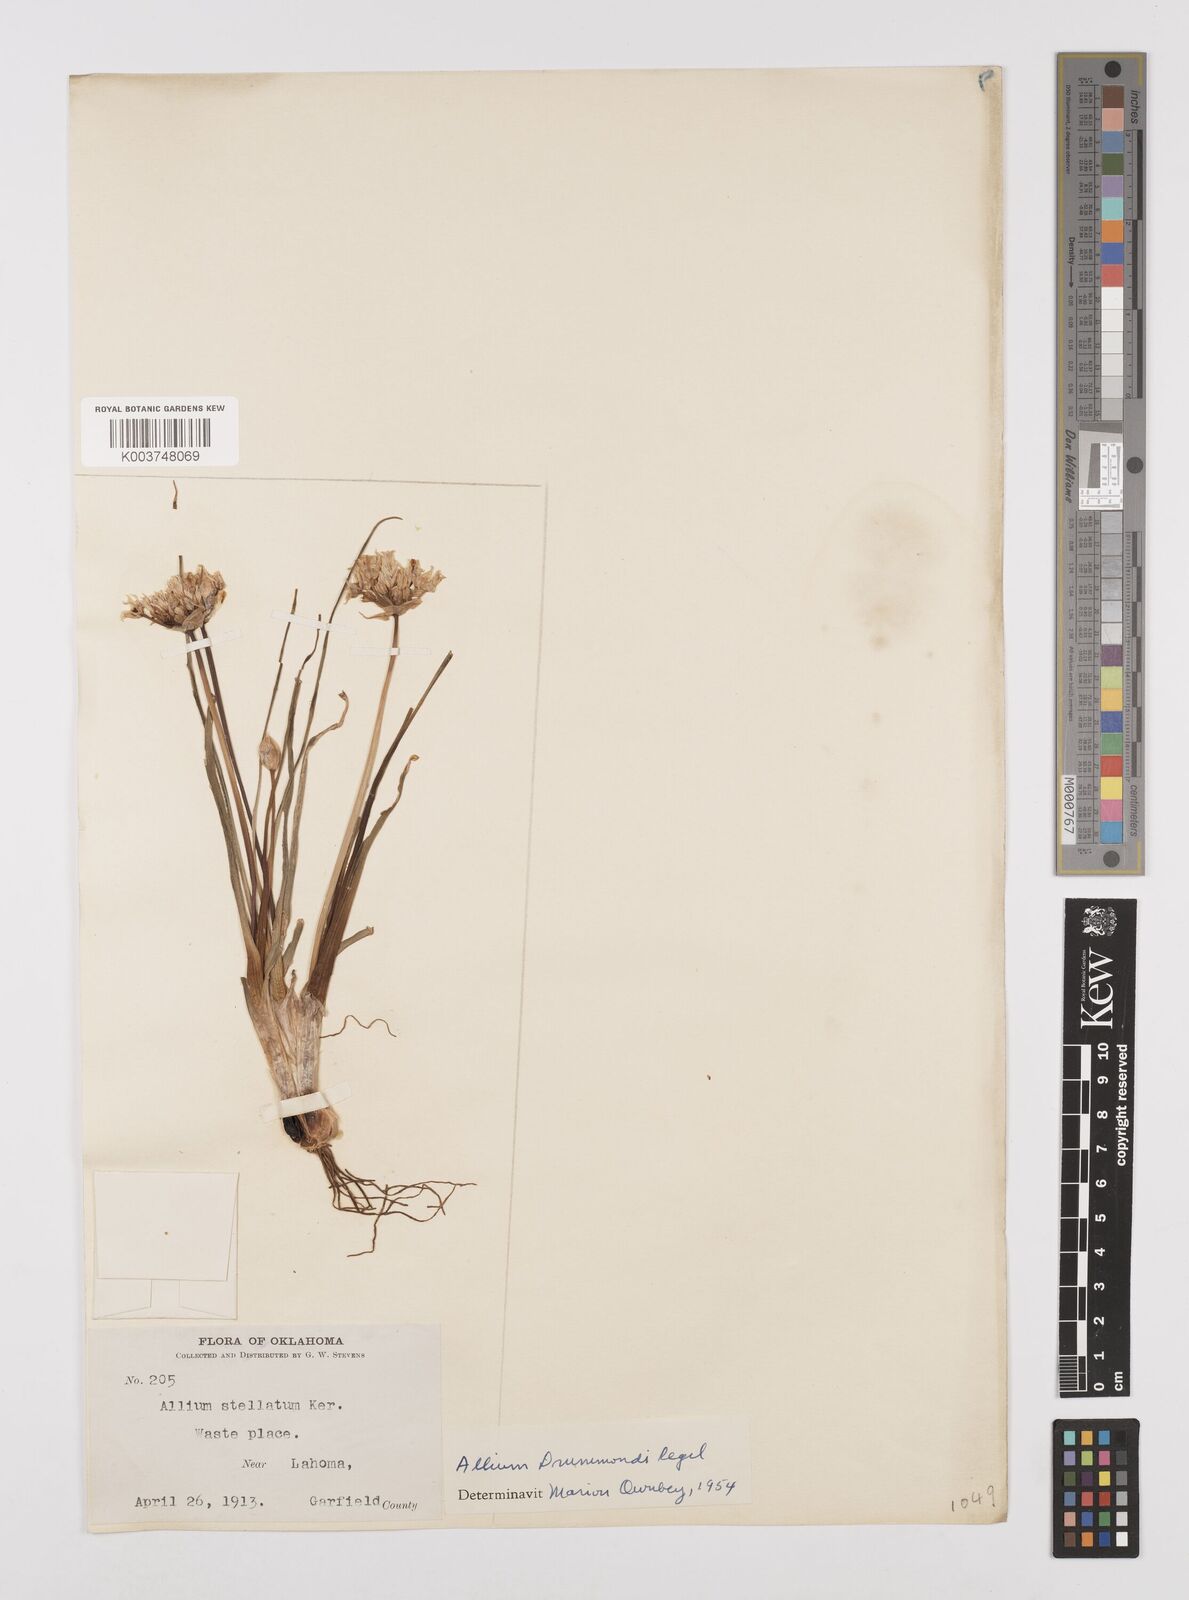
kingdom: Plantae
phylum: Tracheophyta
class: Liliopsida
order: Asparagales
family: Amaryllidaceae
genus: Allium
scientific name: Allium drummondii
